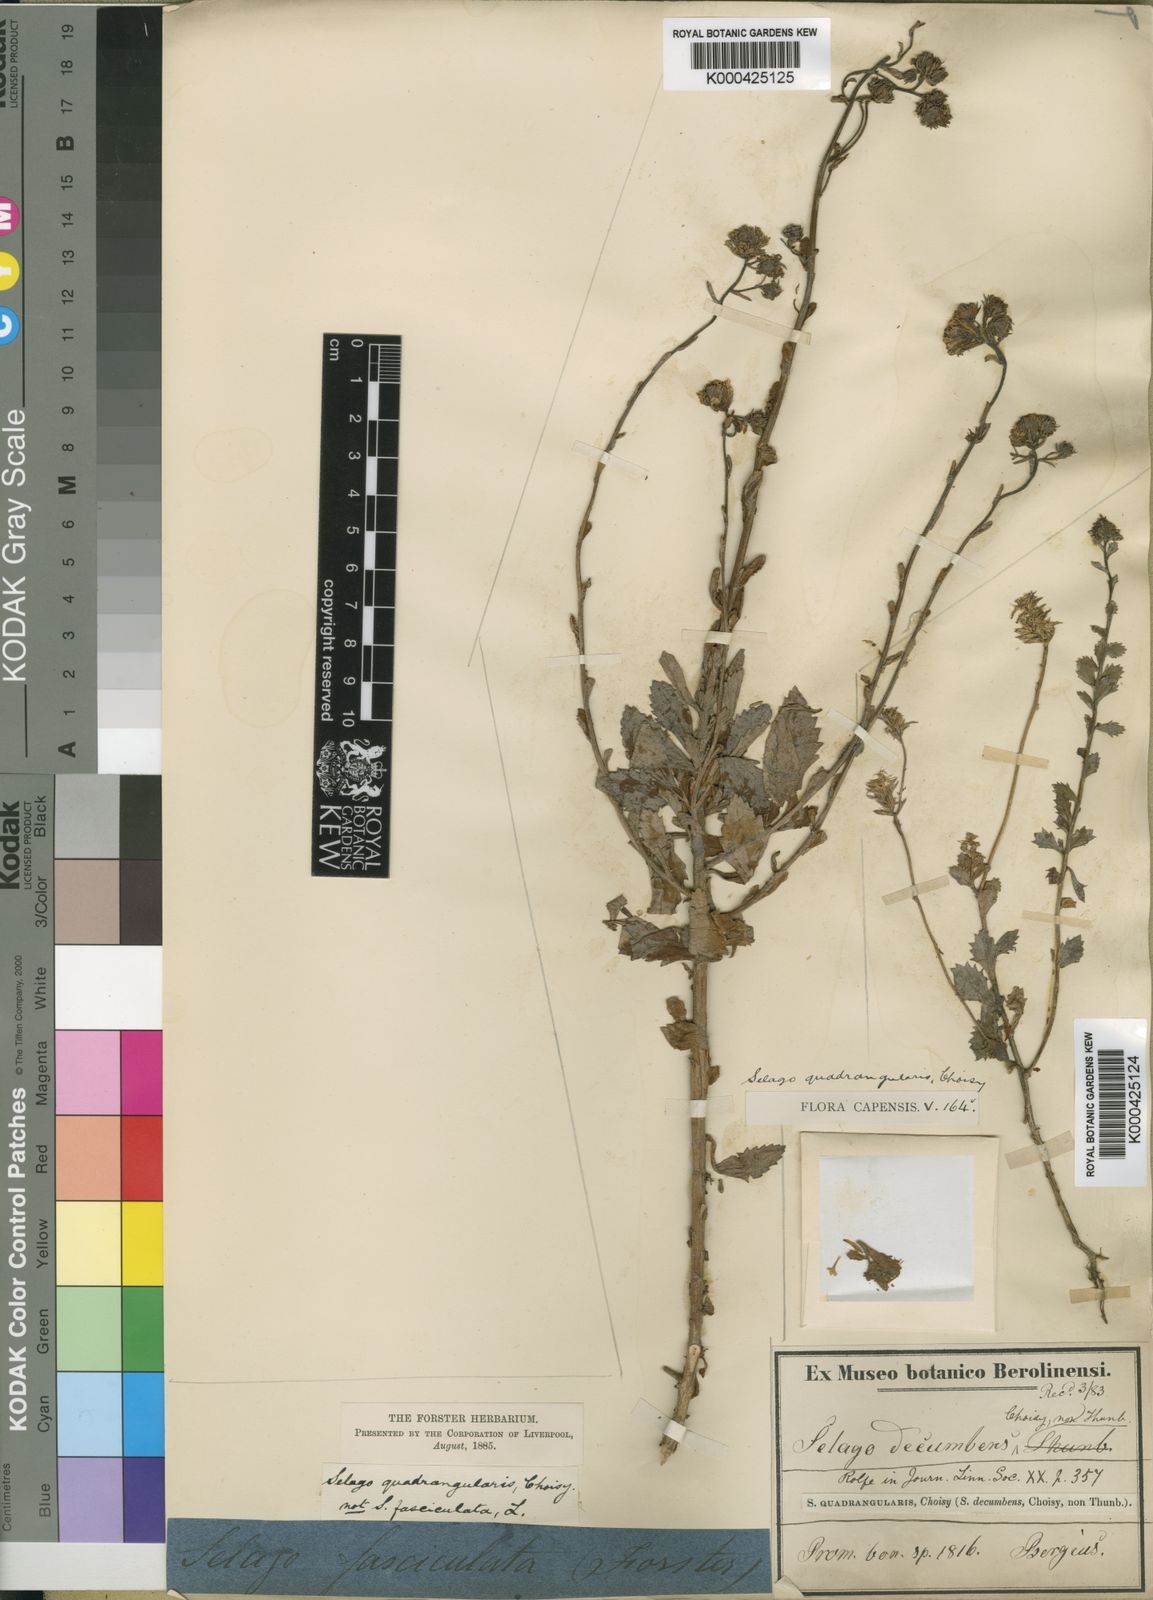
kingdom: Plantae
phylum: Tracheophyta
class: Magnoliopsida
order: Lamiales
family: Scrophulariaceae
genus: Pseudoselago
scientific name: Pseudoselago peninsulae
